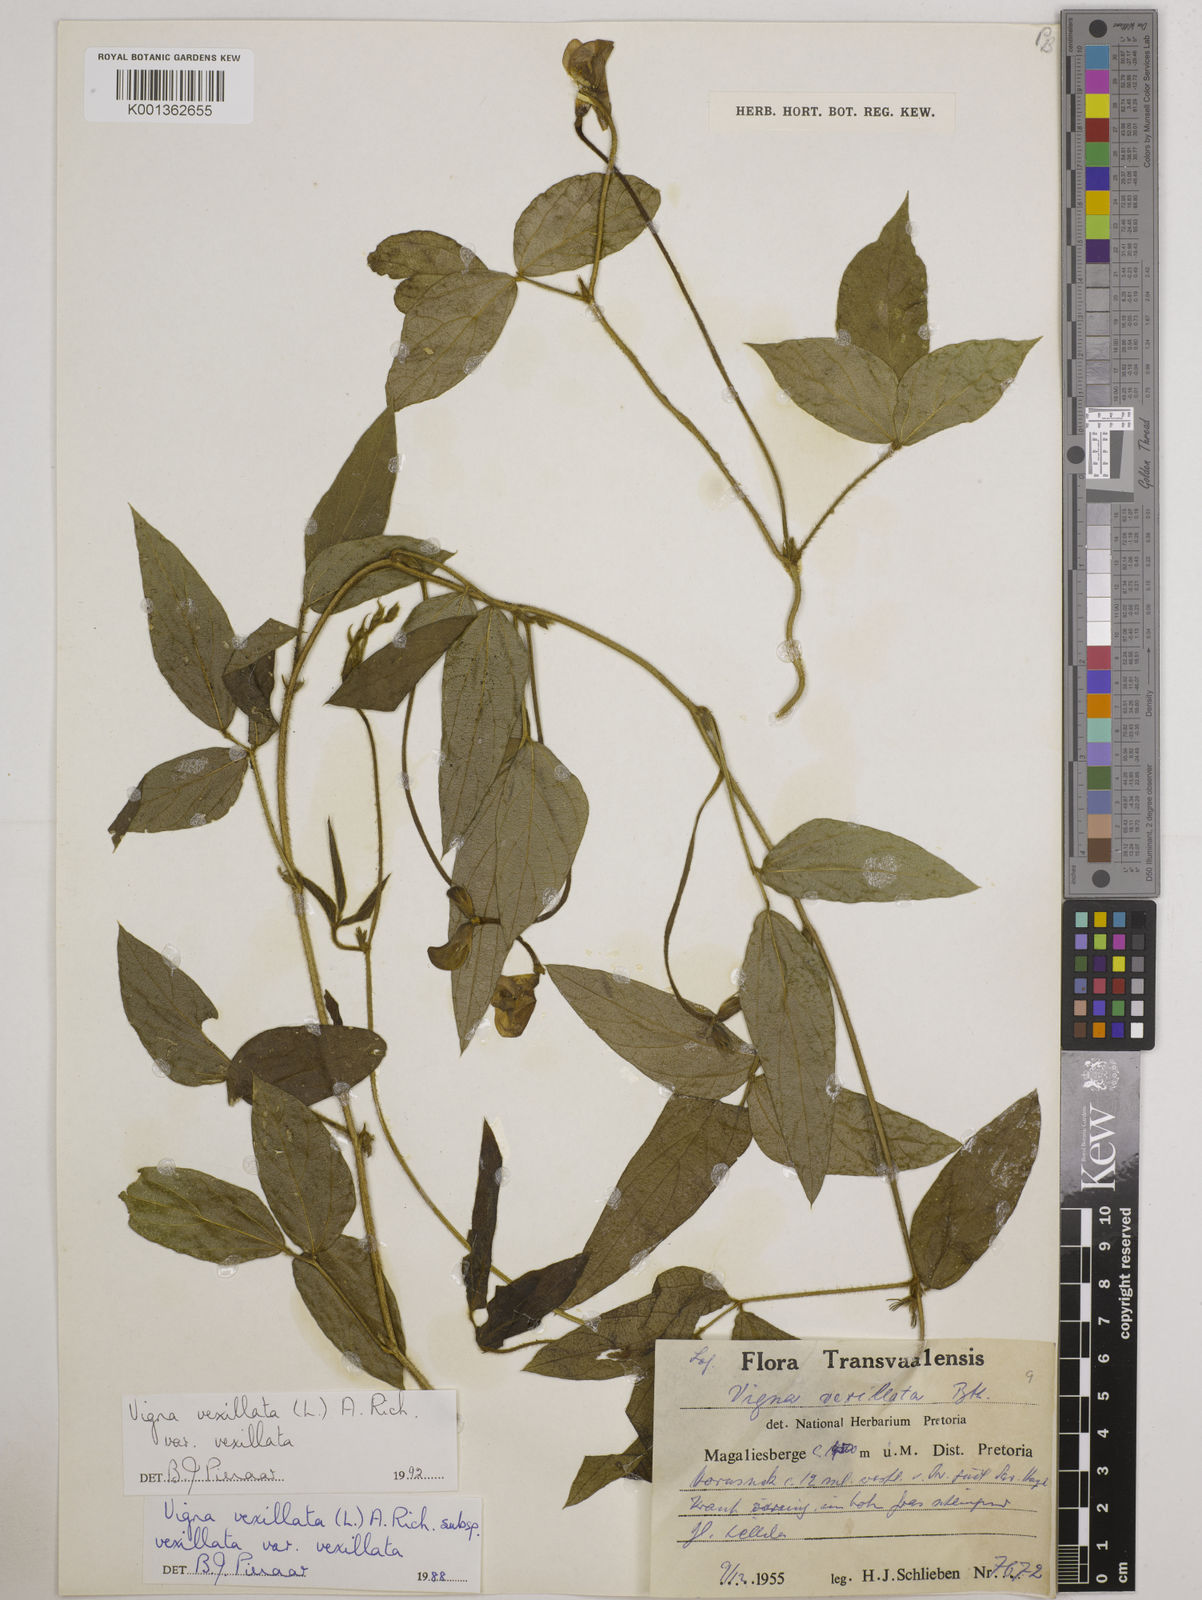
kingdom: Plantae
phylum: Tracheophyta
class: Magnoliopsida
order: Fabales
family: Fabaceae
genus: Vigna
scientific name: Vigna vexillata
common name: Zombi pea
